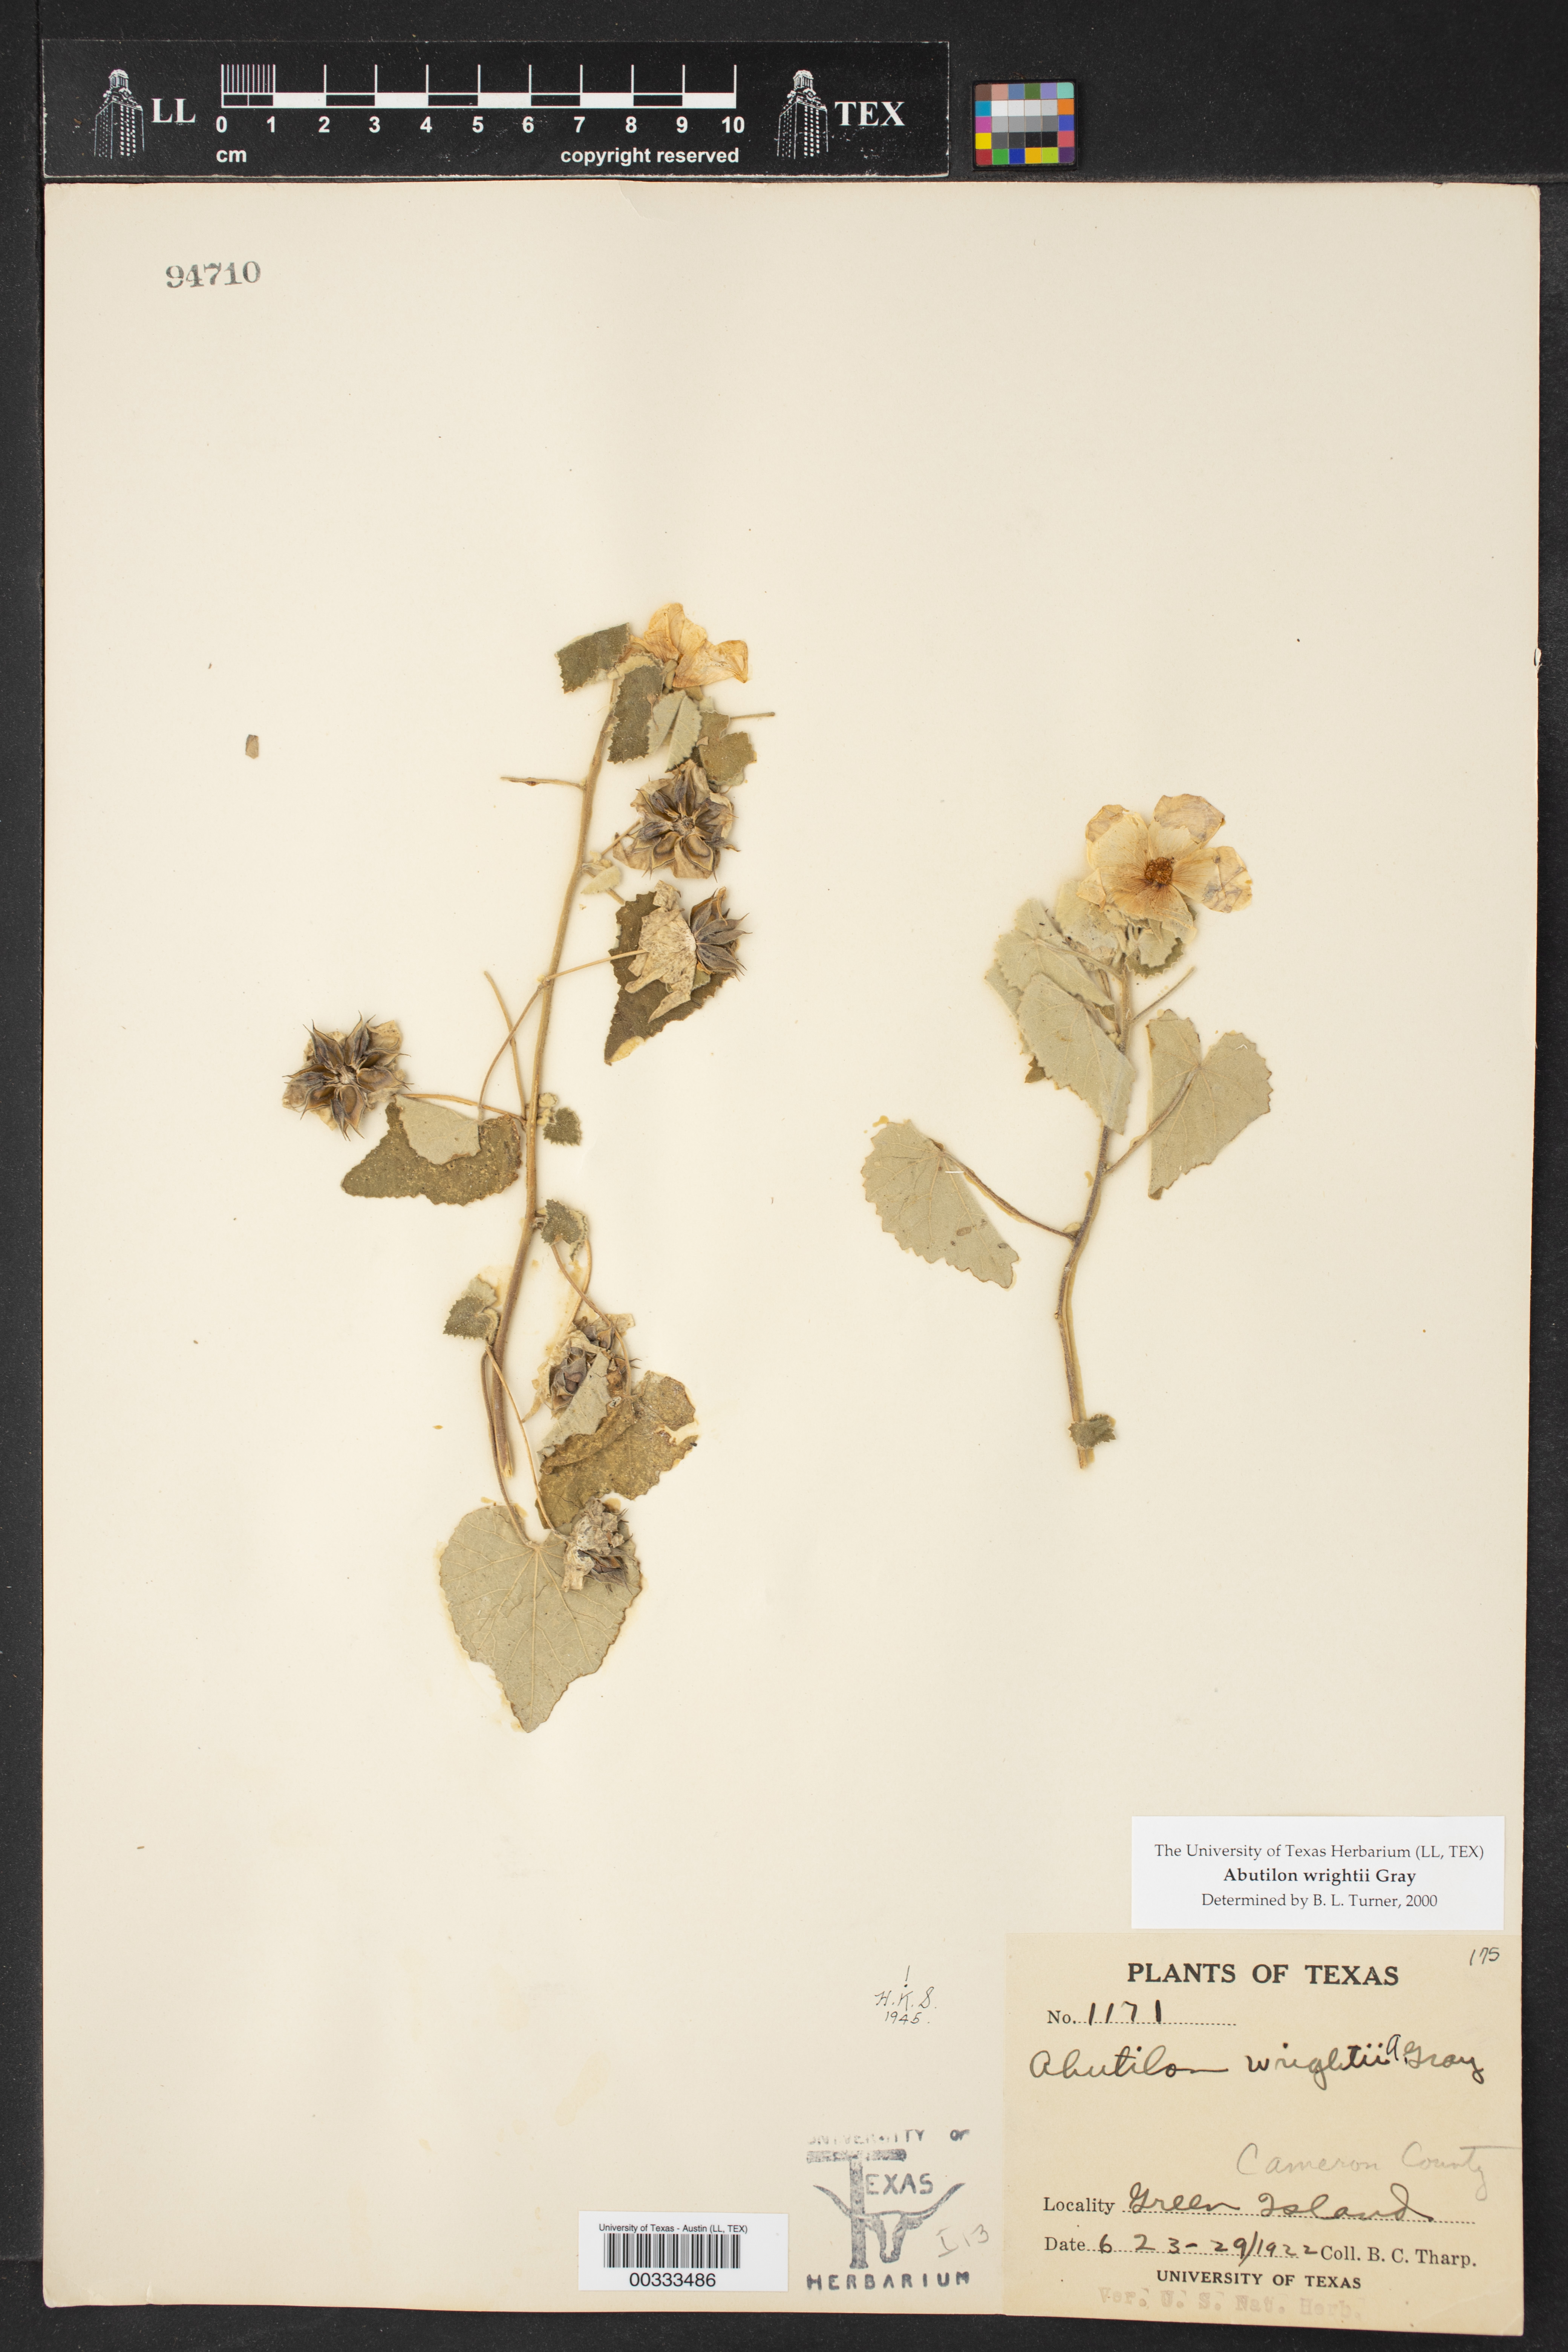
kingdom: Plantae
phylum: Tracheophyta
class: Magnoliopsida
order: Malvales
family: Malvaceae
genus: Abutilon
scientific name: Abutilon wrightii
